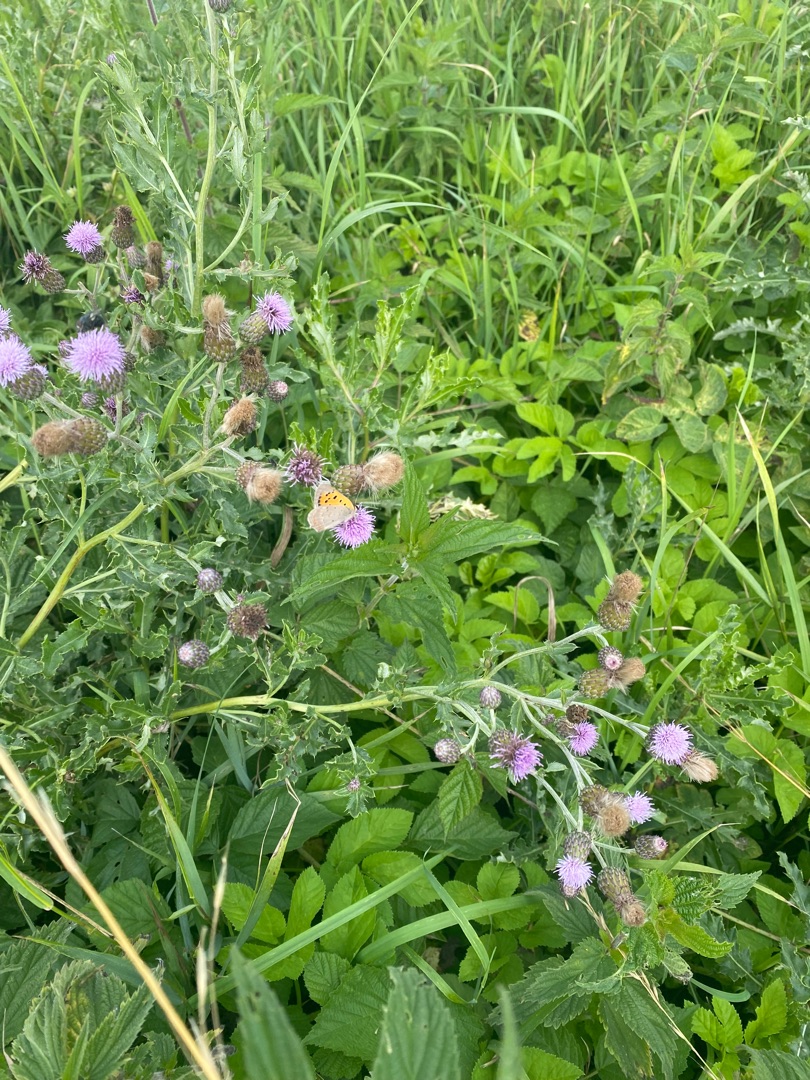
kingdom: Animalia
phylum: Arthropoda
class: Insecta
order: Lepidoptera
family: Lycaenidae
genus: Lycaena
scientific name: Lycaena phlaeas
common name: Lille ildfugl
